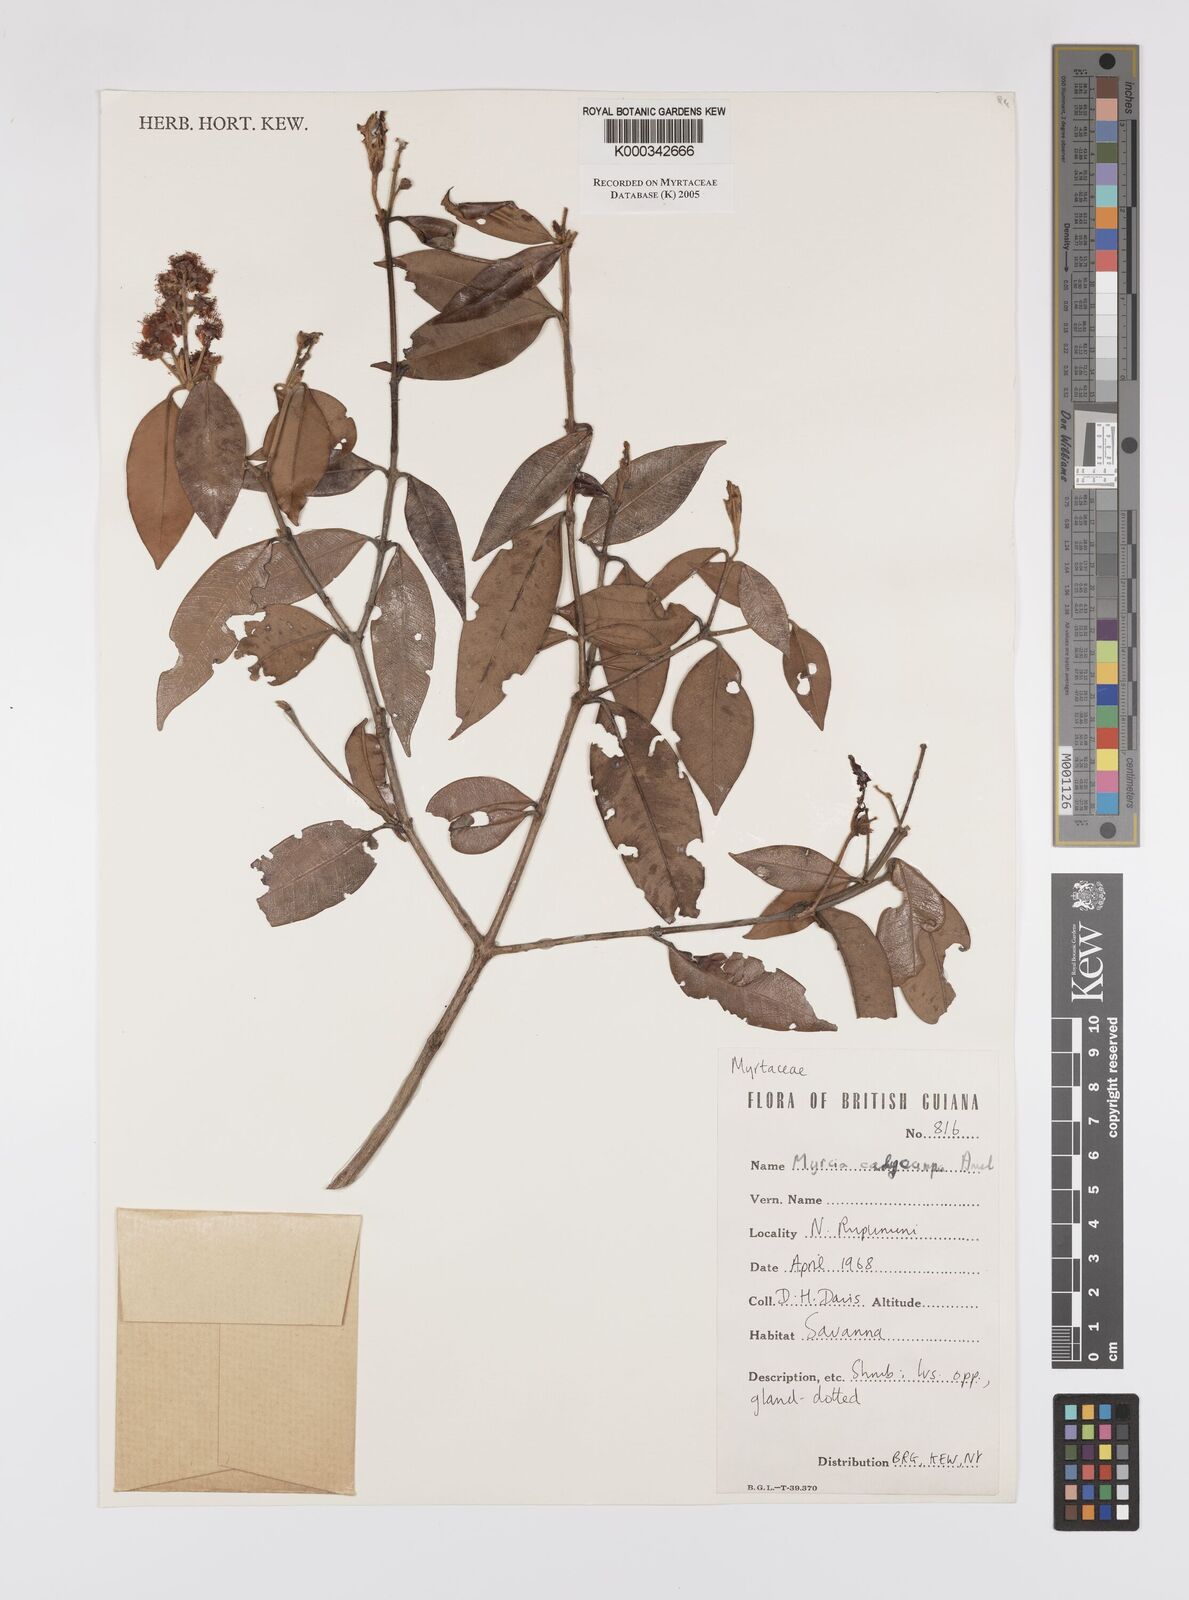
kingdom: Plantae
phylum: Tracheophyta
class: Magnoliopsida
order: Myrtales
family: Myrtaceae
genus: Myrcia
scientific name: Myrcia calycampa
